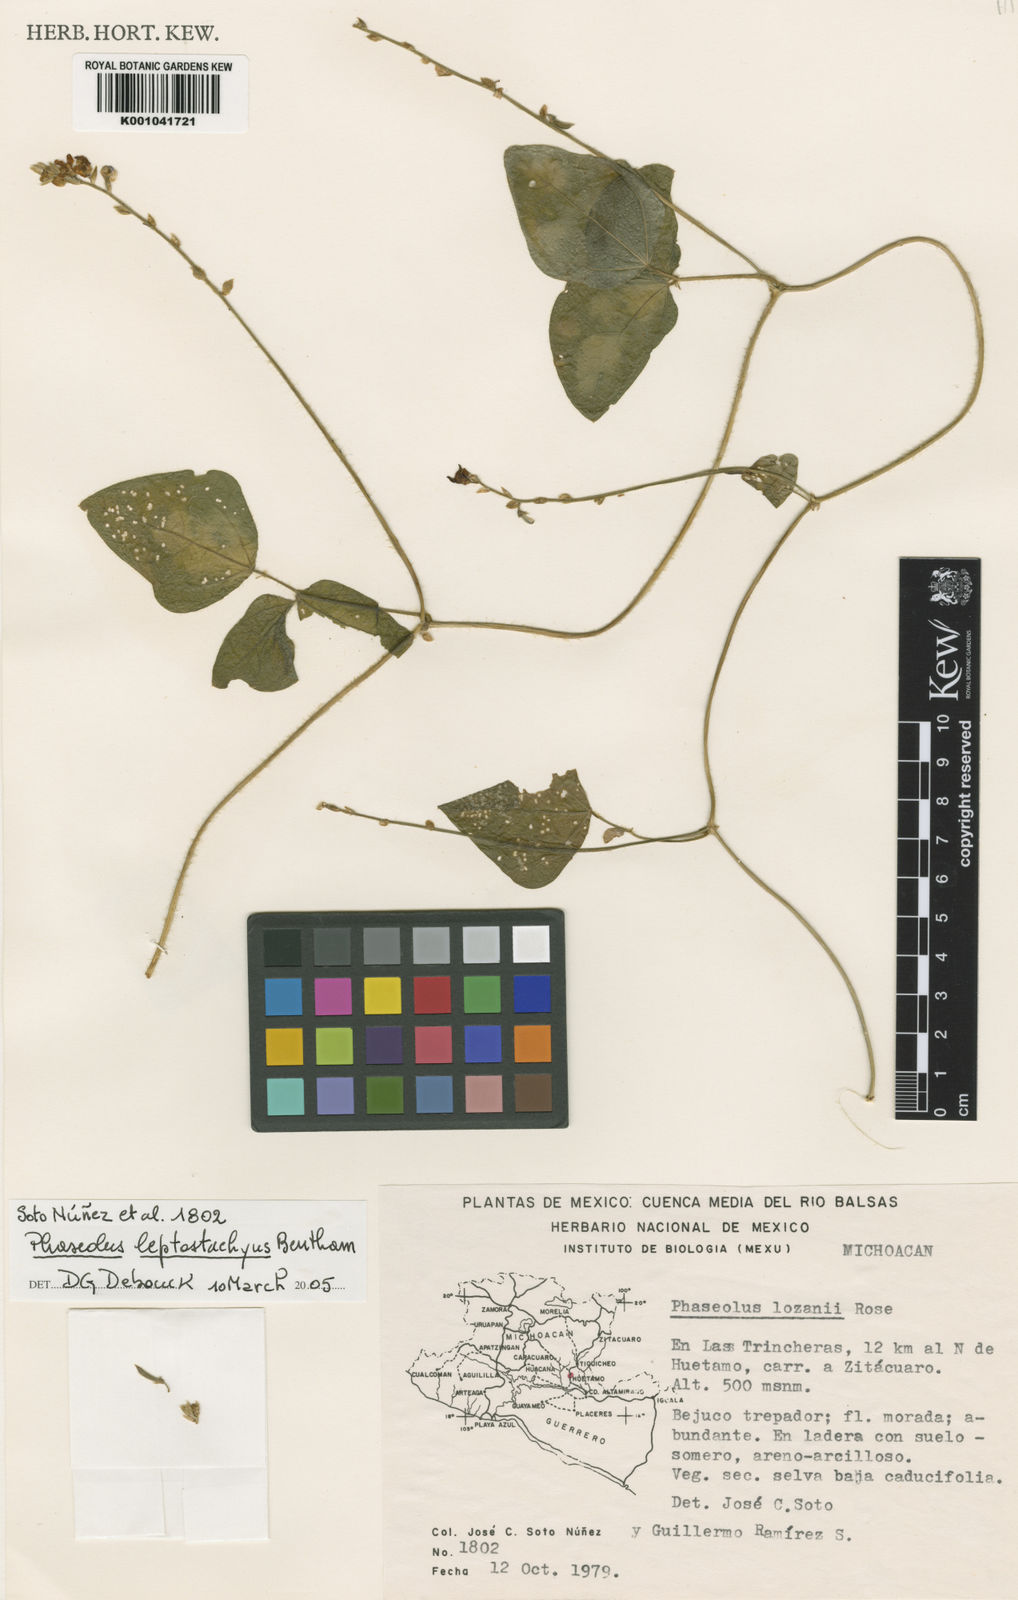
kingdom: Plantae
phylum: Tracheophyta
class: Magnoliopsida
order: Fabales
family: Fabaceae
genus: Phaseolus
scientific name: Phaseolus leptostachyus
